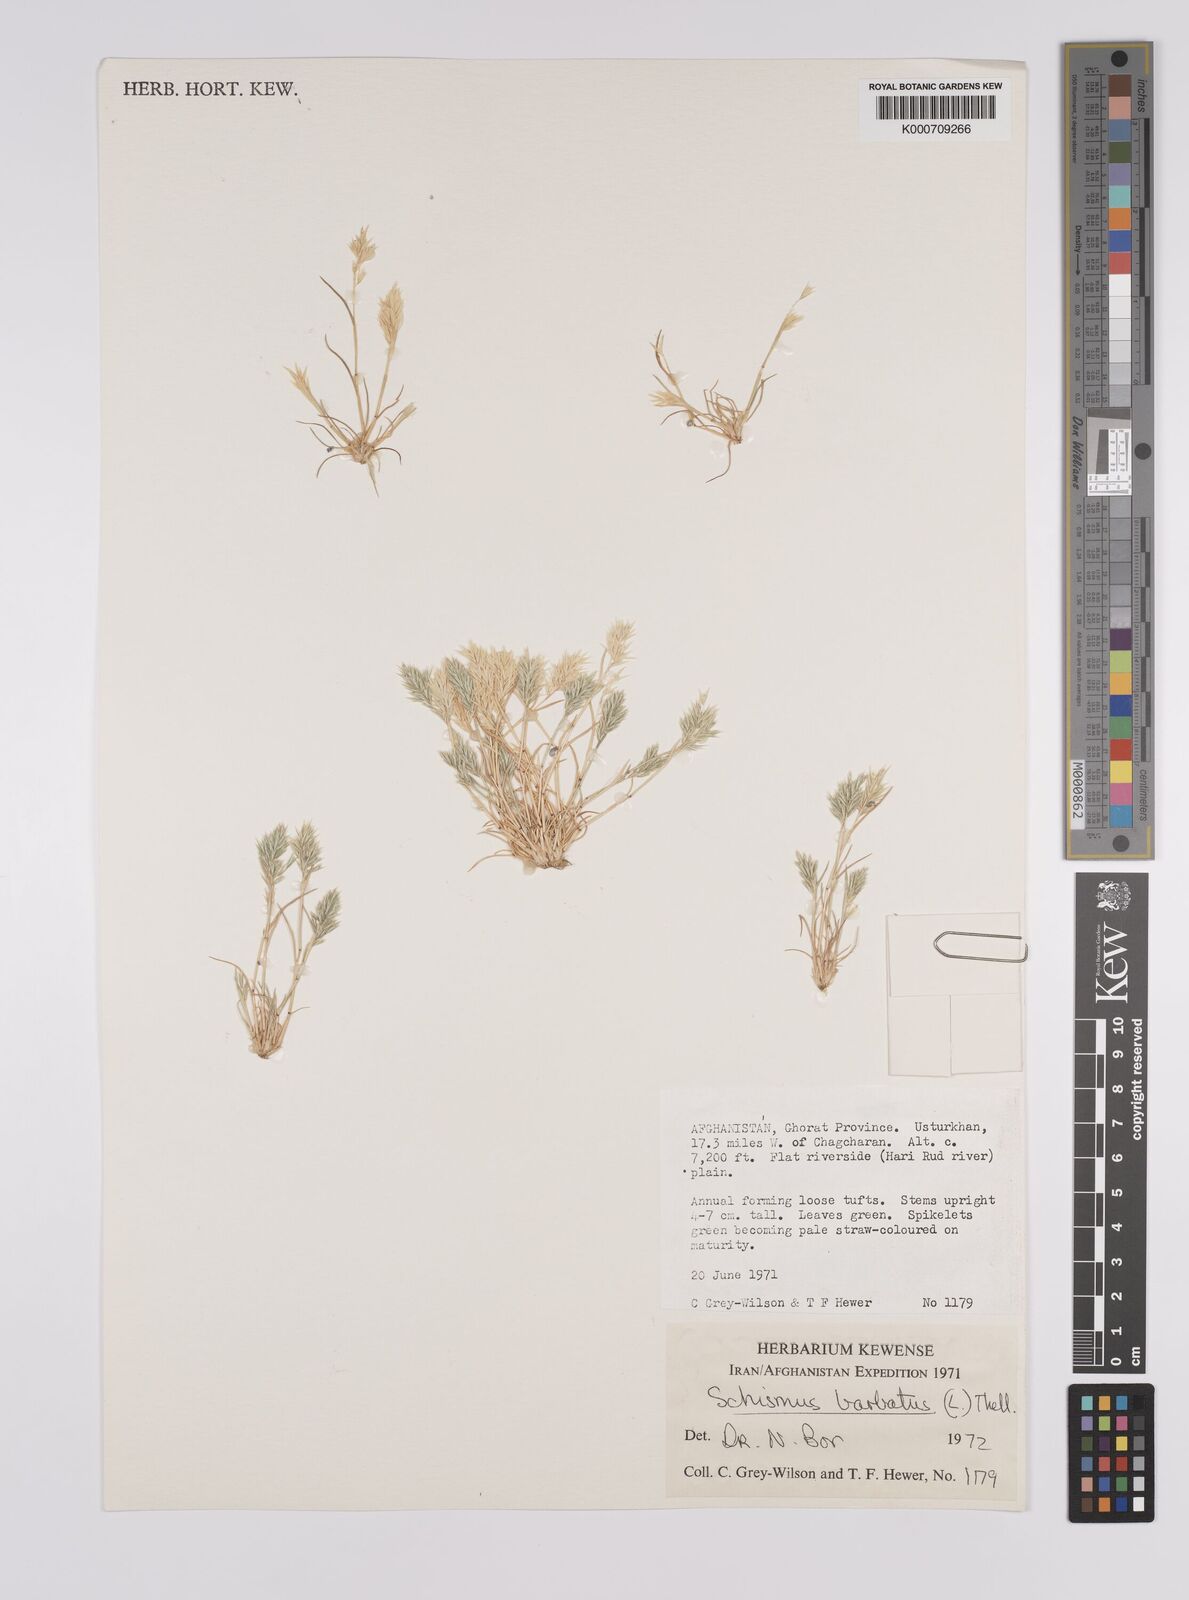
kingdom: Plantae
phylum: Tracheophyta
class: Liliopsida
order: Poales
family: Poaceae
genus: Schismus
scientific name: Schismus barbatus
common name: Kelch-grass
